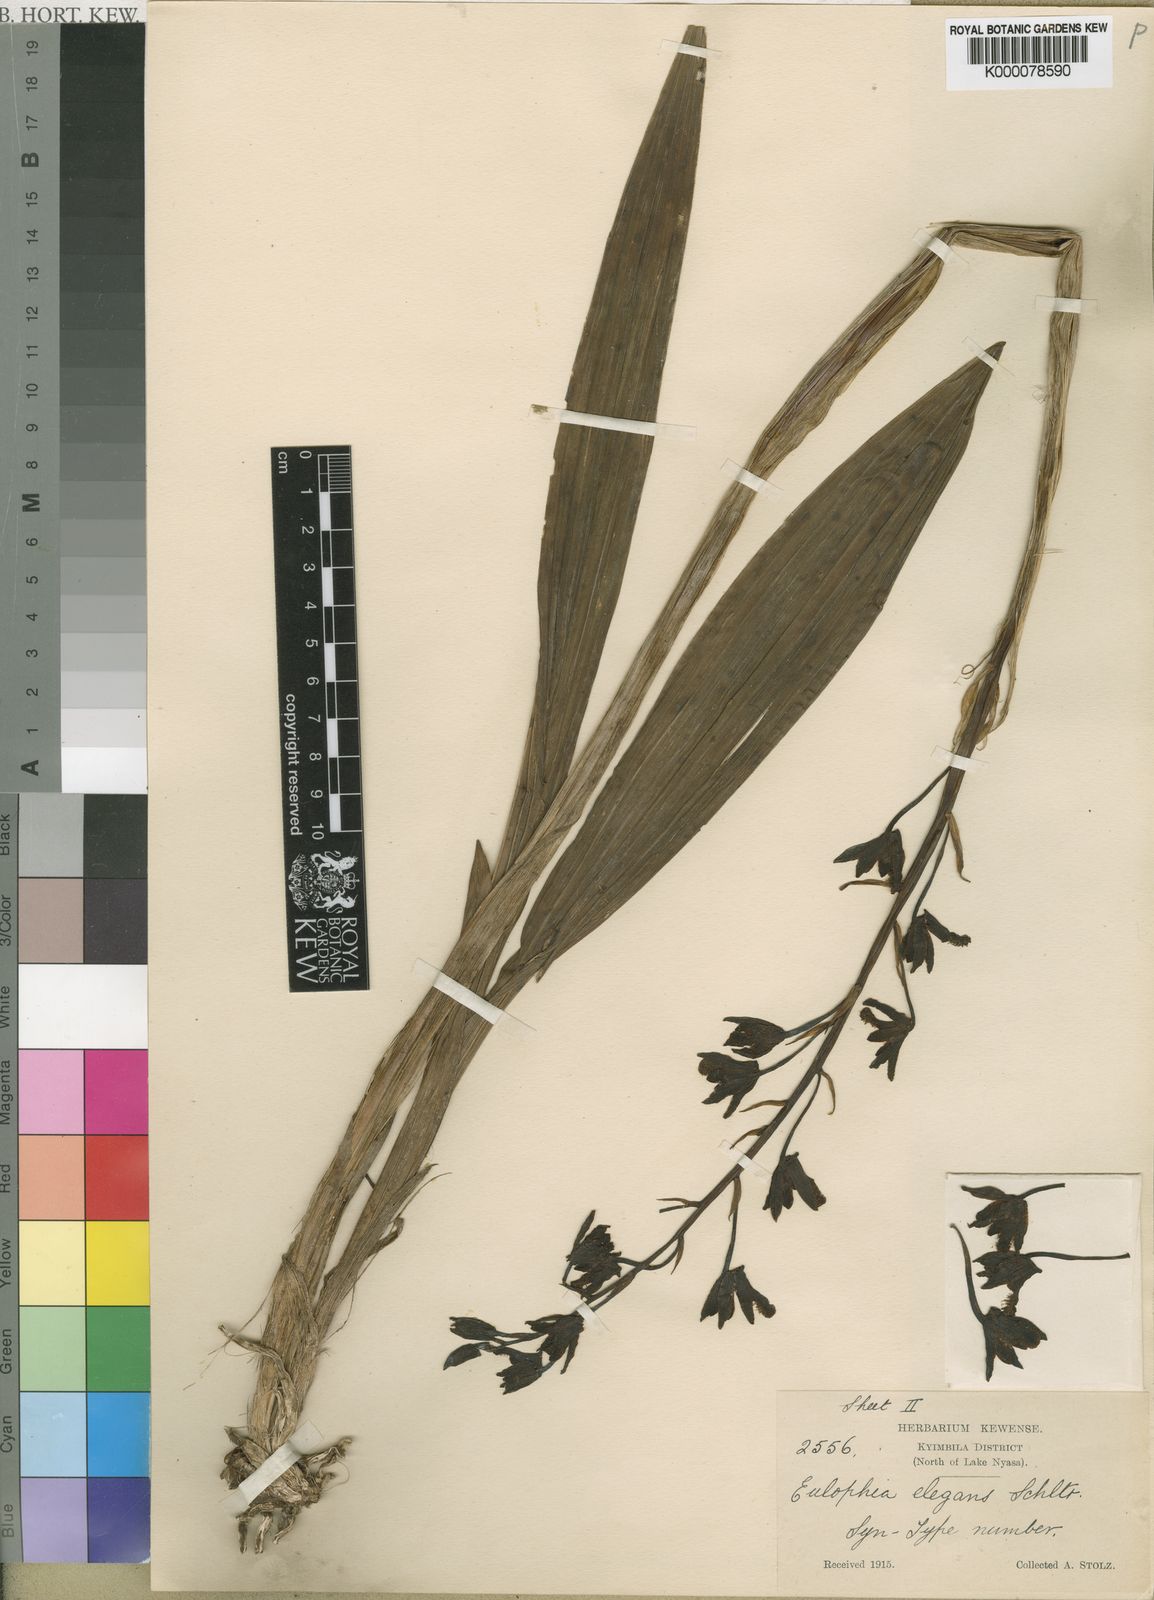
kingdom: Plantae
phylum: Tracheophyta
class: Liliopsida
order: Asparagales
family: Orchidaceae
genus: Eulophia
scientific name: Eulophia elegans
